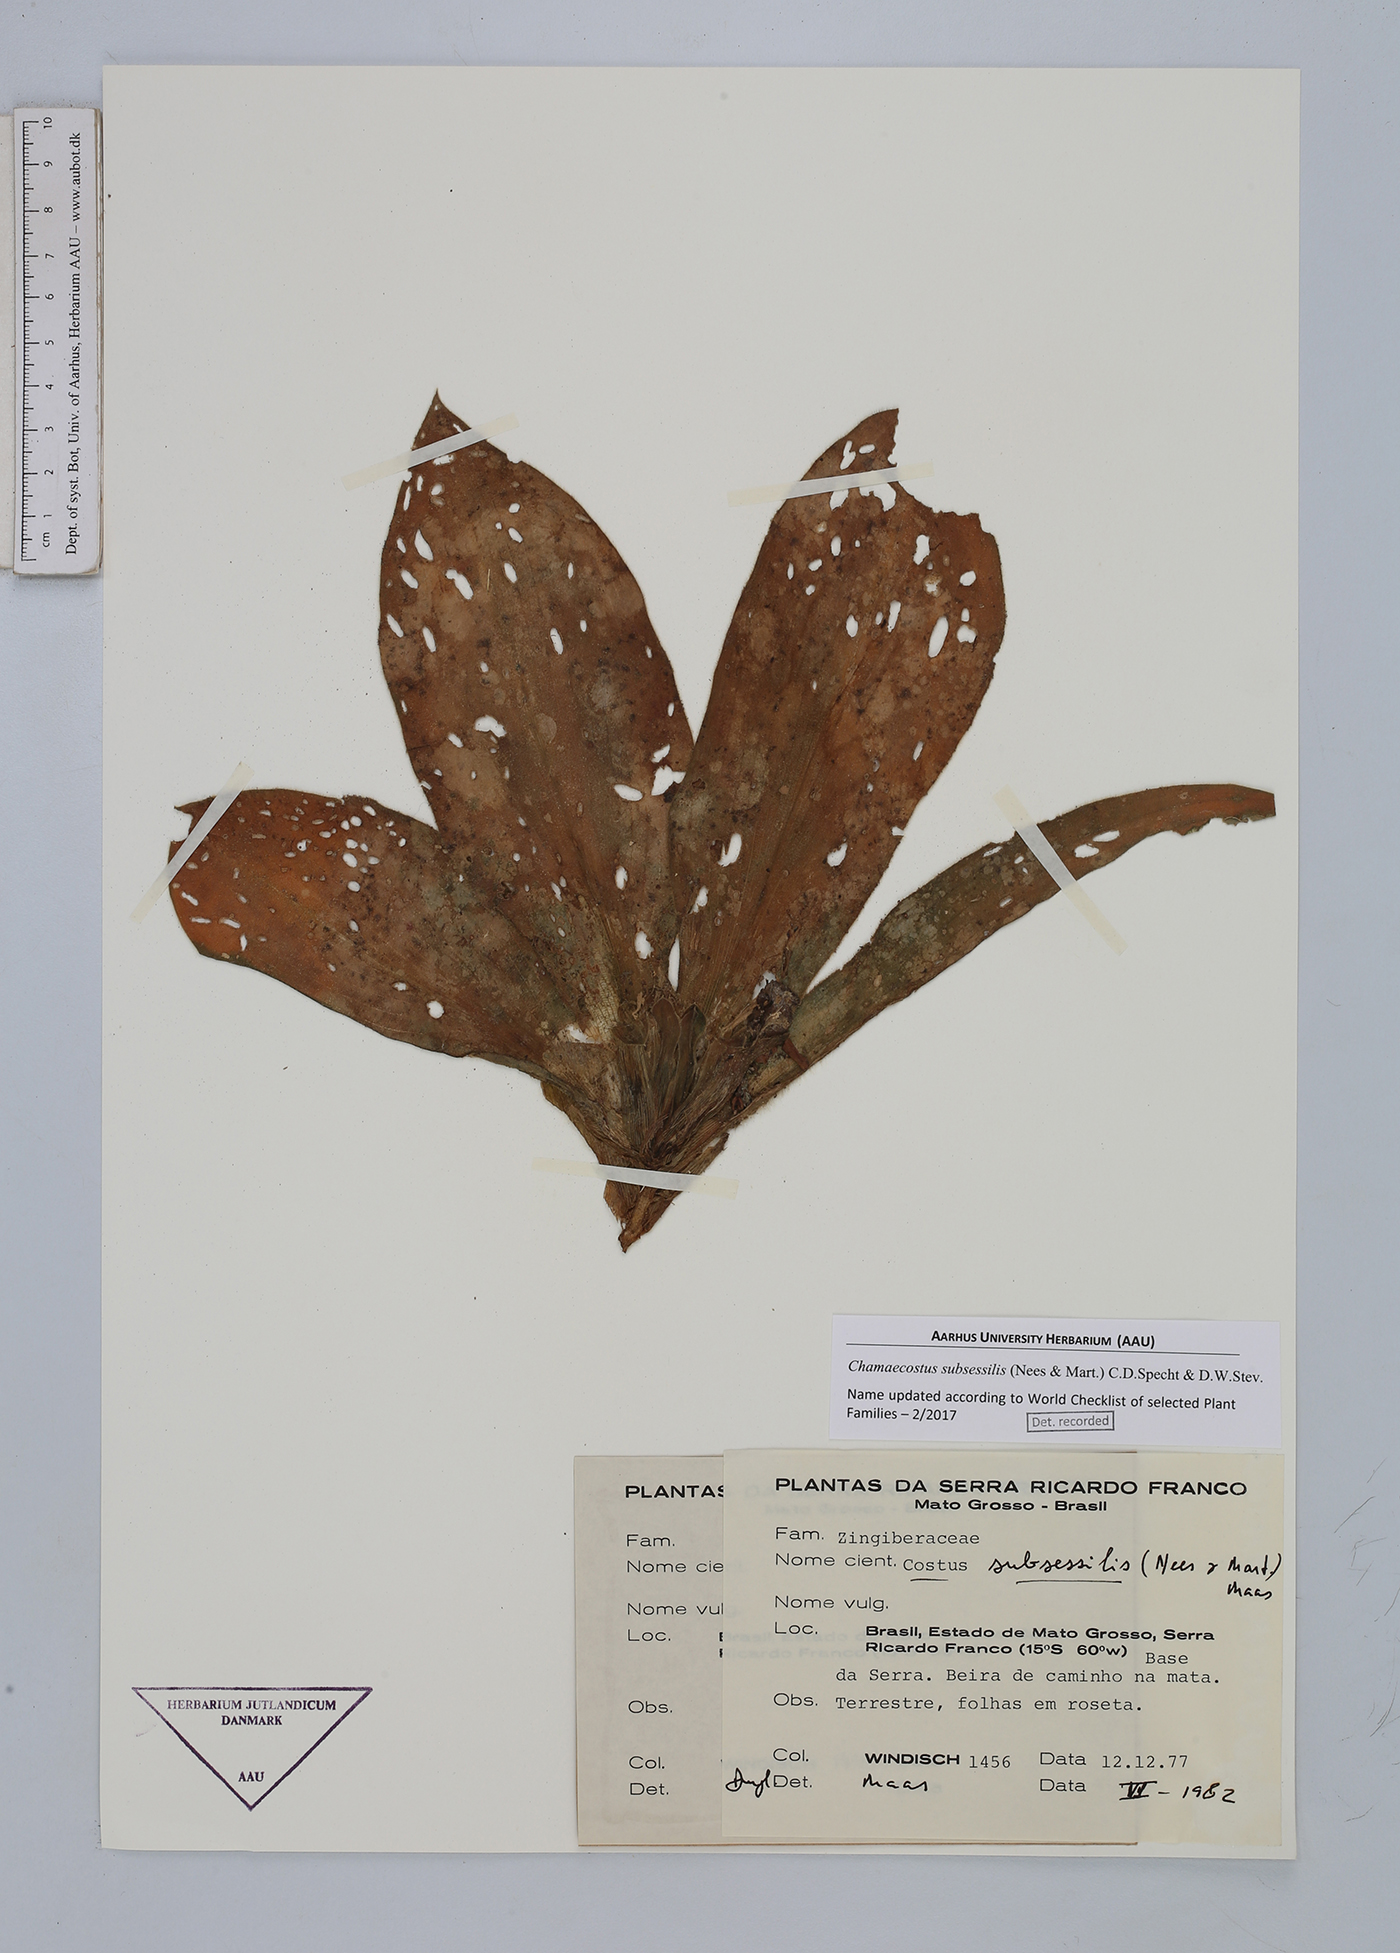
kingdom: Plantae
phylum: Tracheophyta
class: Liliopsida
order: Zingiberales
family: Costaceae
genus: Chamaecostus
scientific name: Chamaecostus subsessilis
